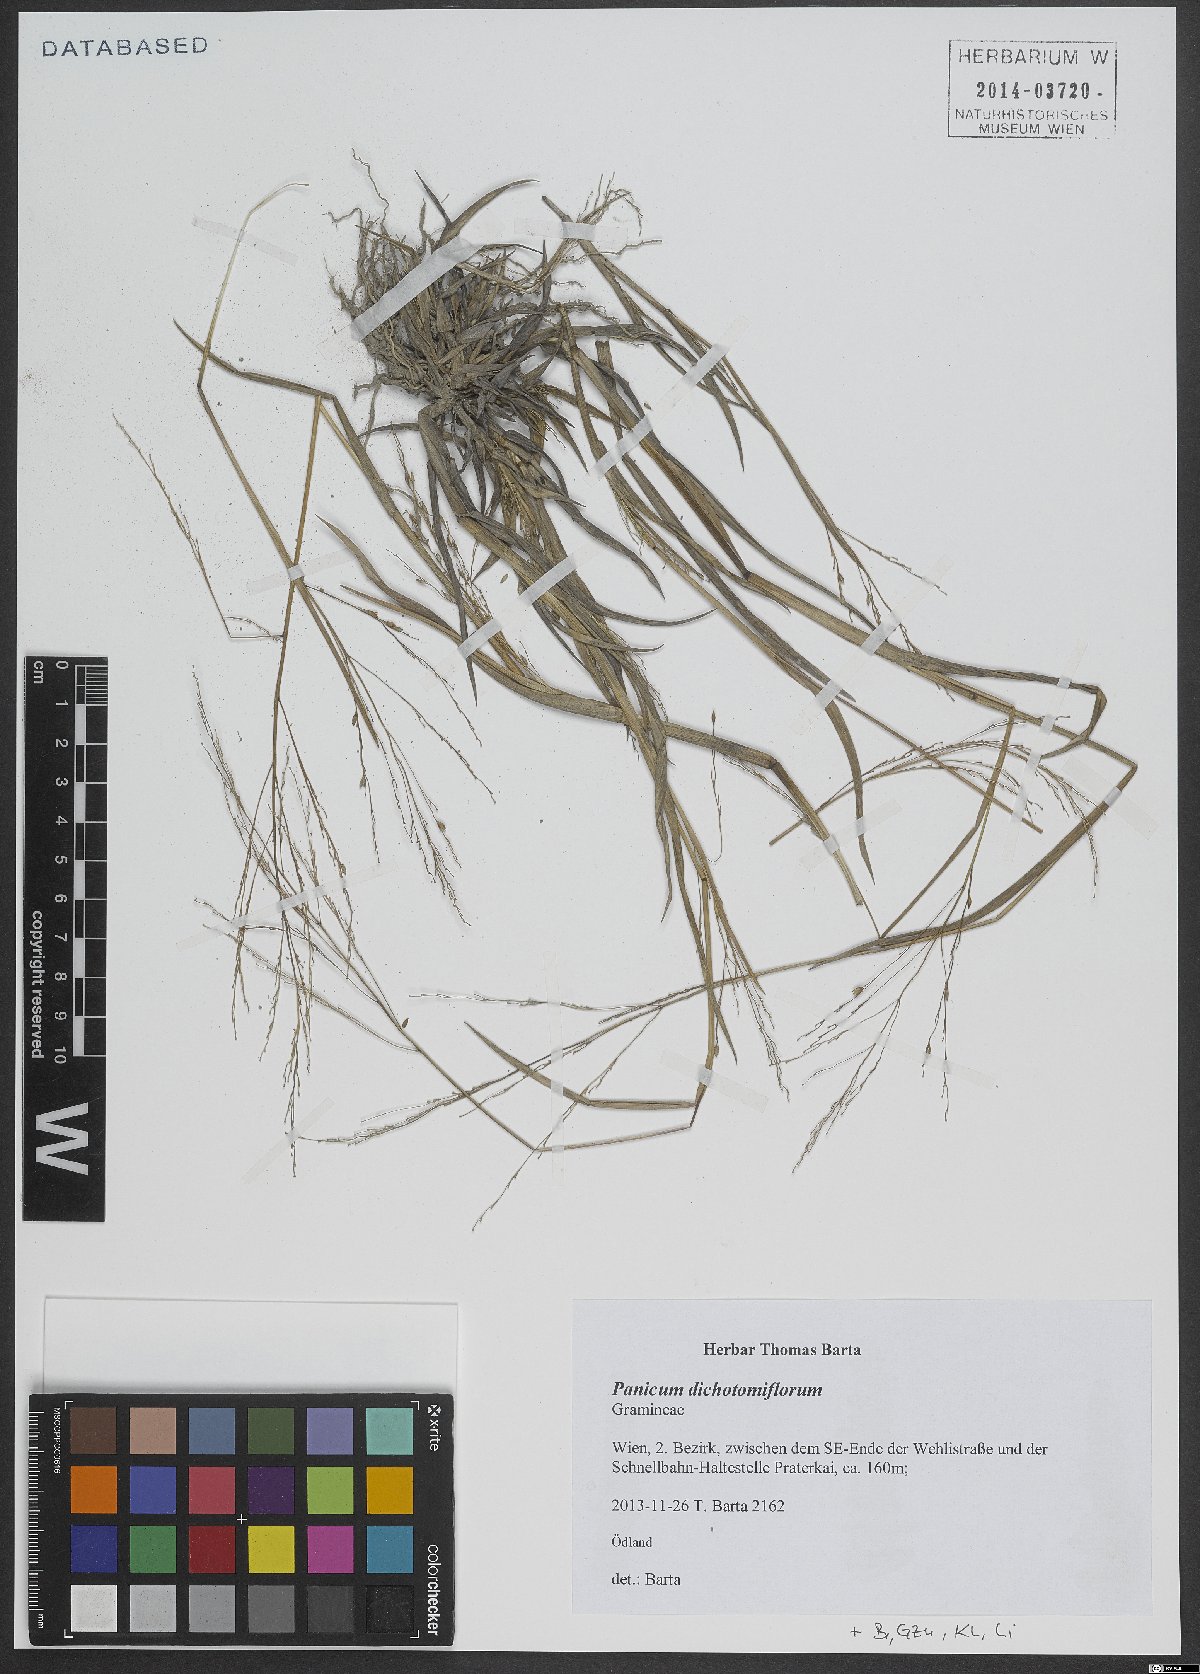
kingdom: Plantae
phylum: Tracheophyta
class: Liliopsida
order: Poales
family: Poaceae
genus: Panicum
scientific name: Panicum dichotomiflorum
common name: Autumn millet
